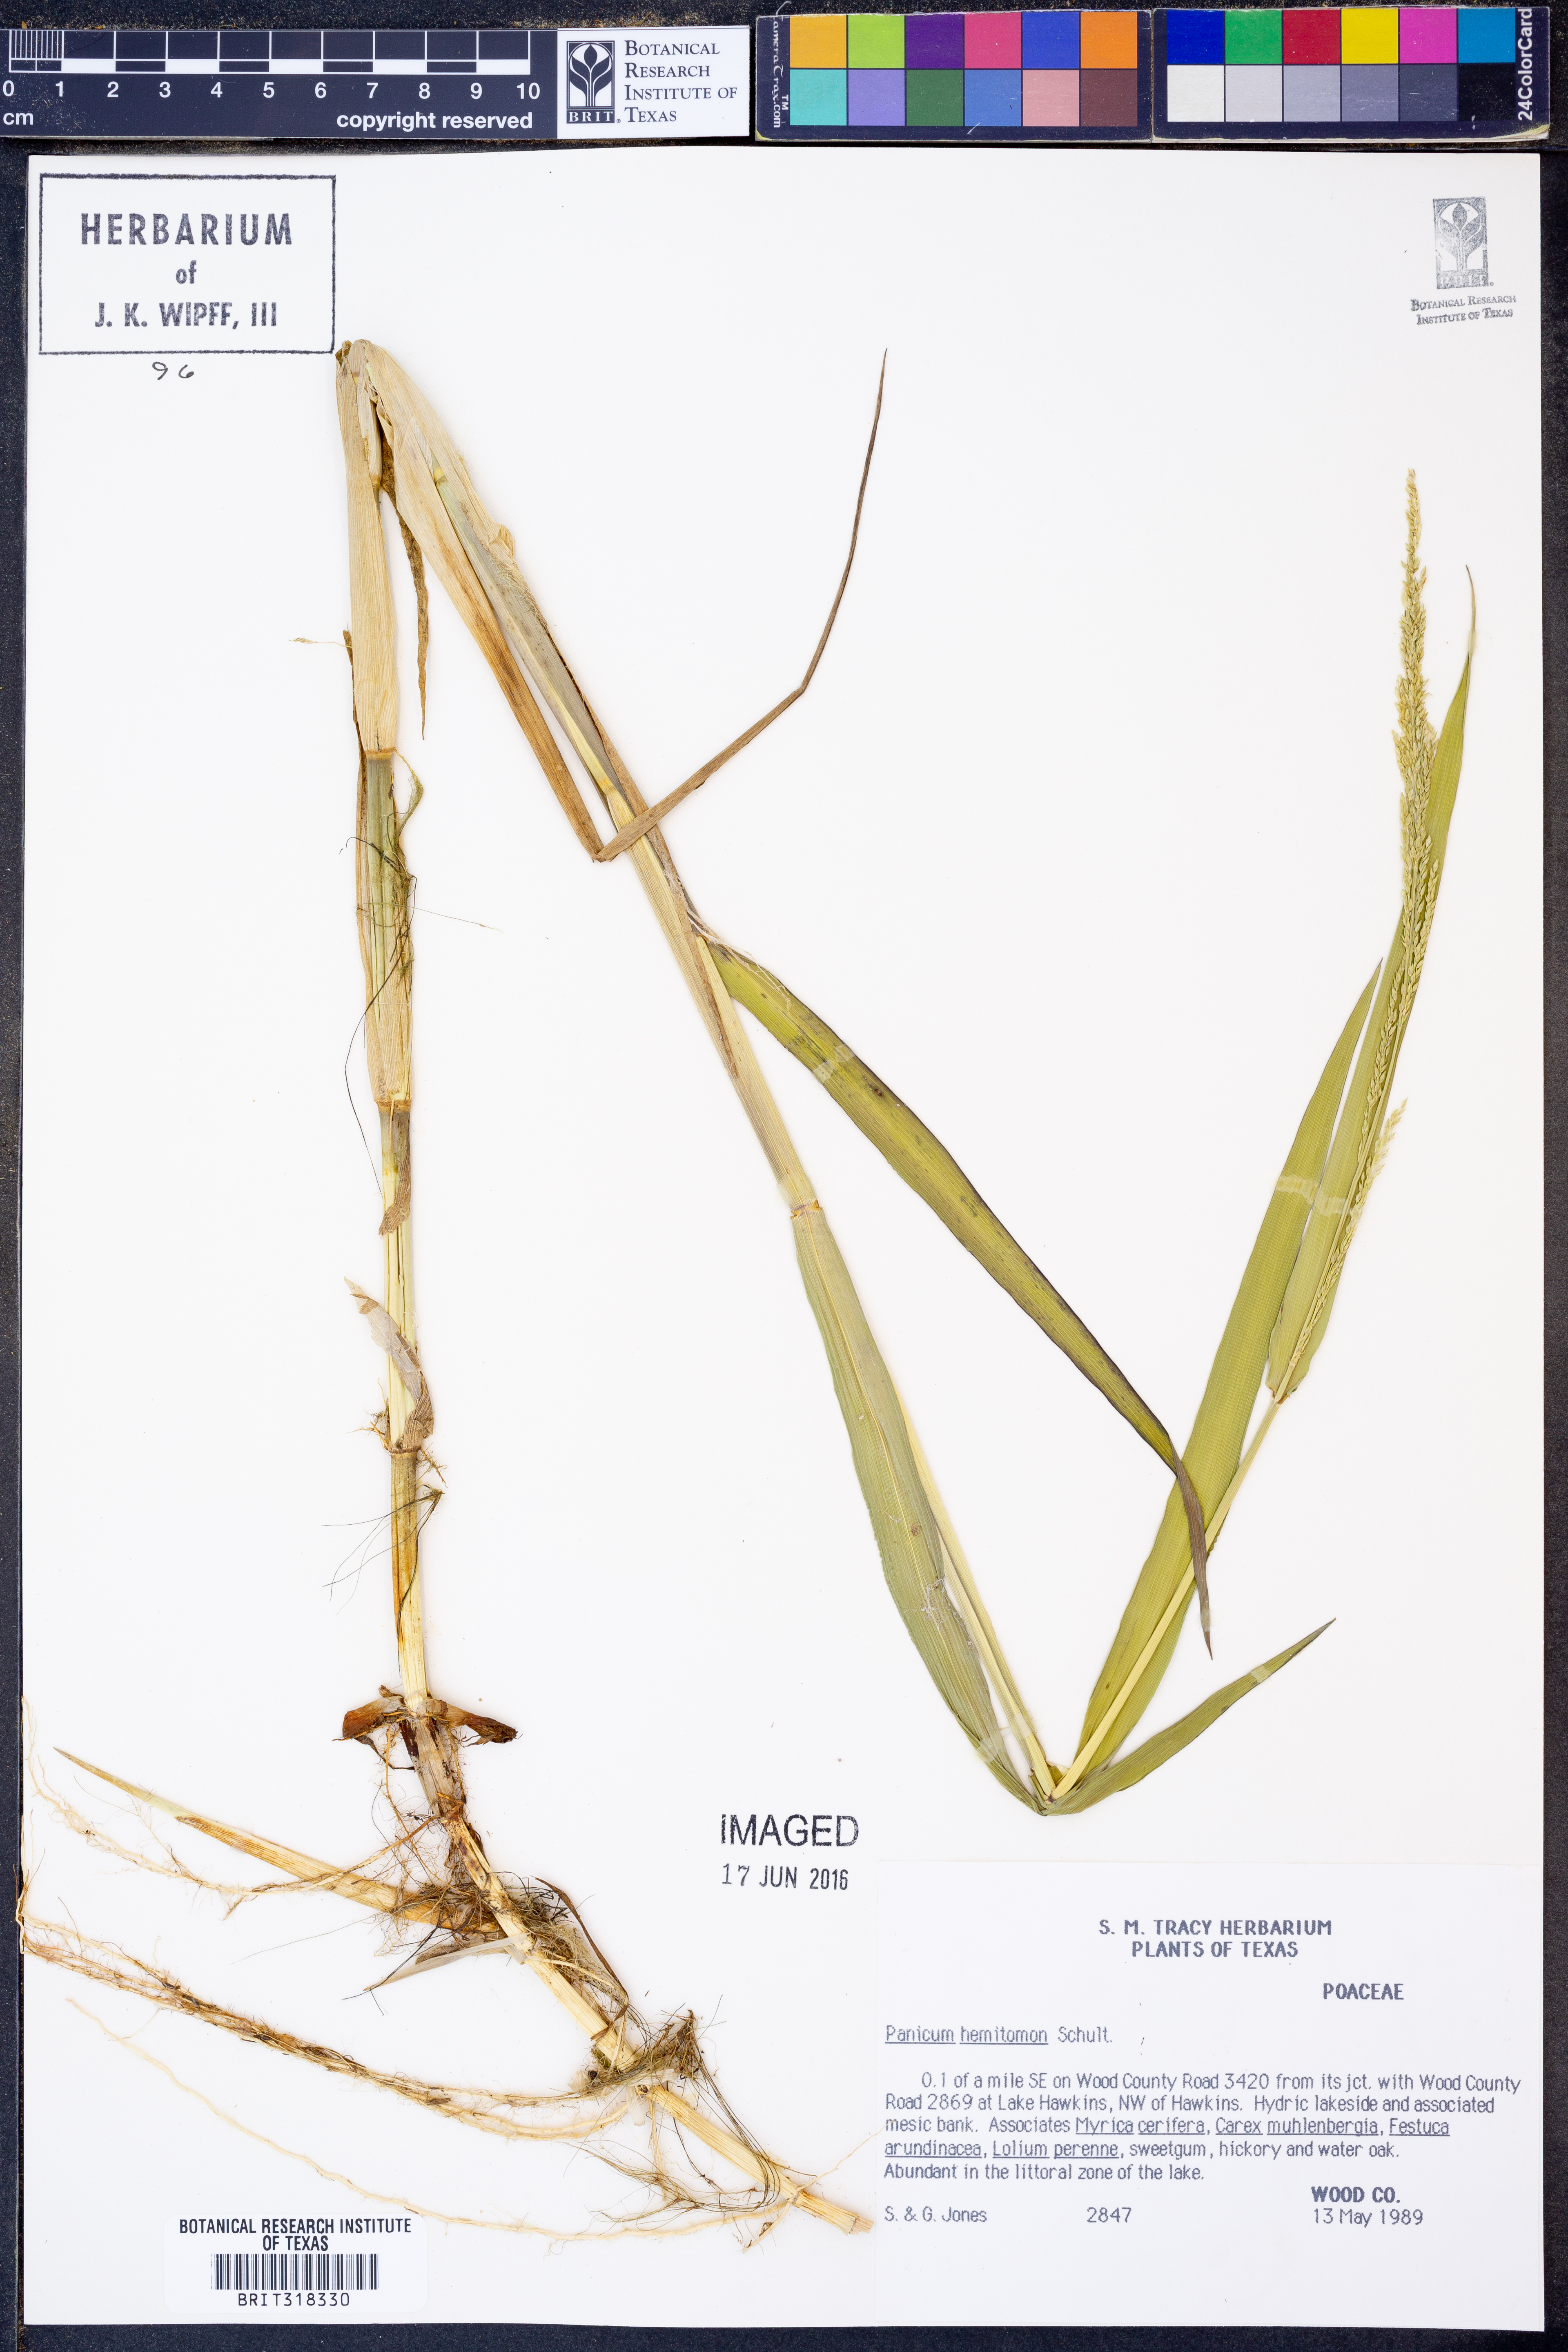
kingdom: Plantae
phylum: Tracheophyta
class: Liliopsida
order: Poales
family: Poaceae
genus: Panicum
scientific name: Panicum hemitomon
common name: Maidencane
